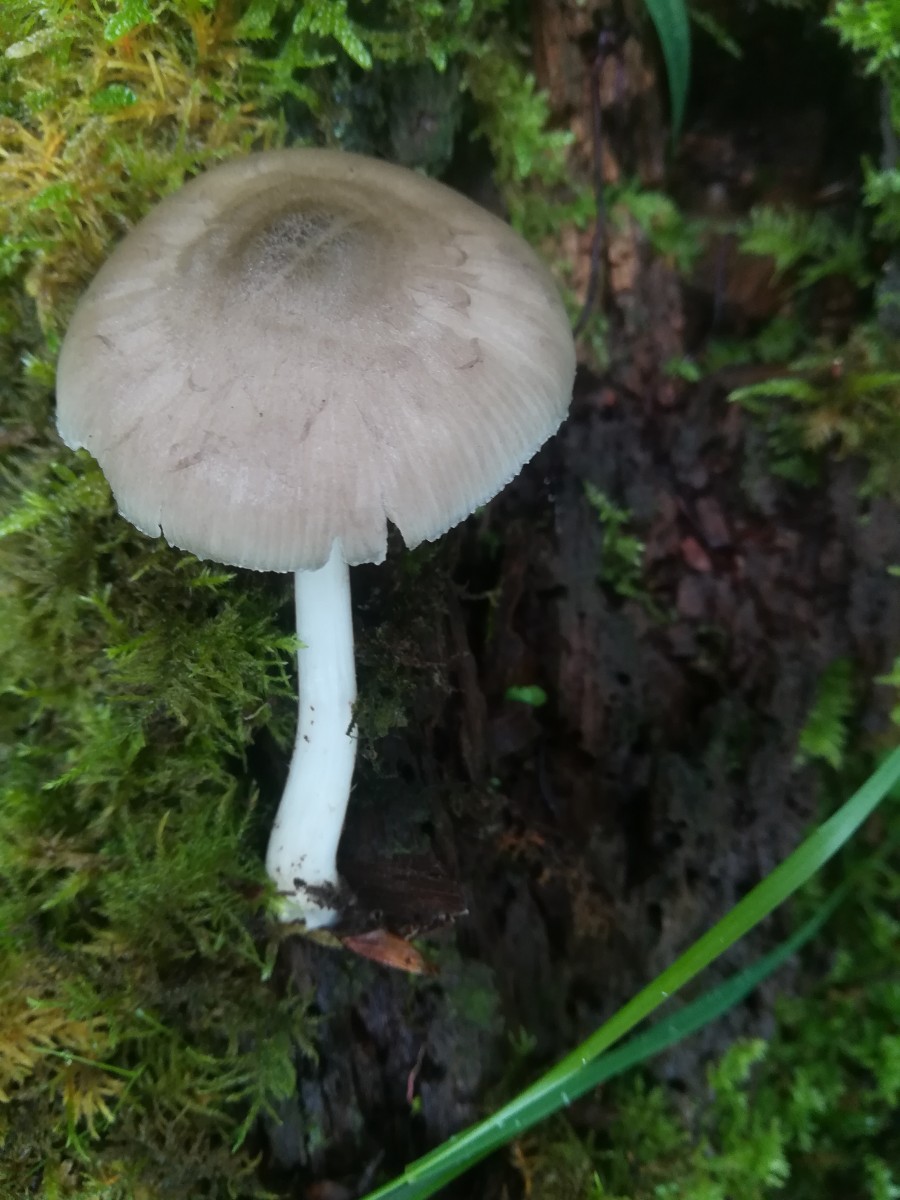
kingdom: Fungi
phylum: Basidiomycota
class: Agaricomycetes
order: Agaricales
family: Pluteaceae
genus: Pluteus
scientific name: Pluteus salicinus
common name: stiv skærmhat
